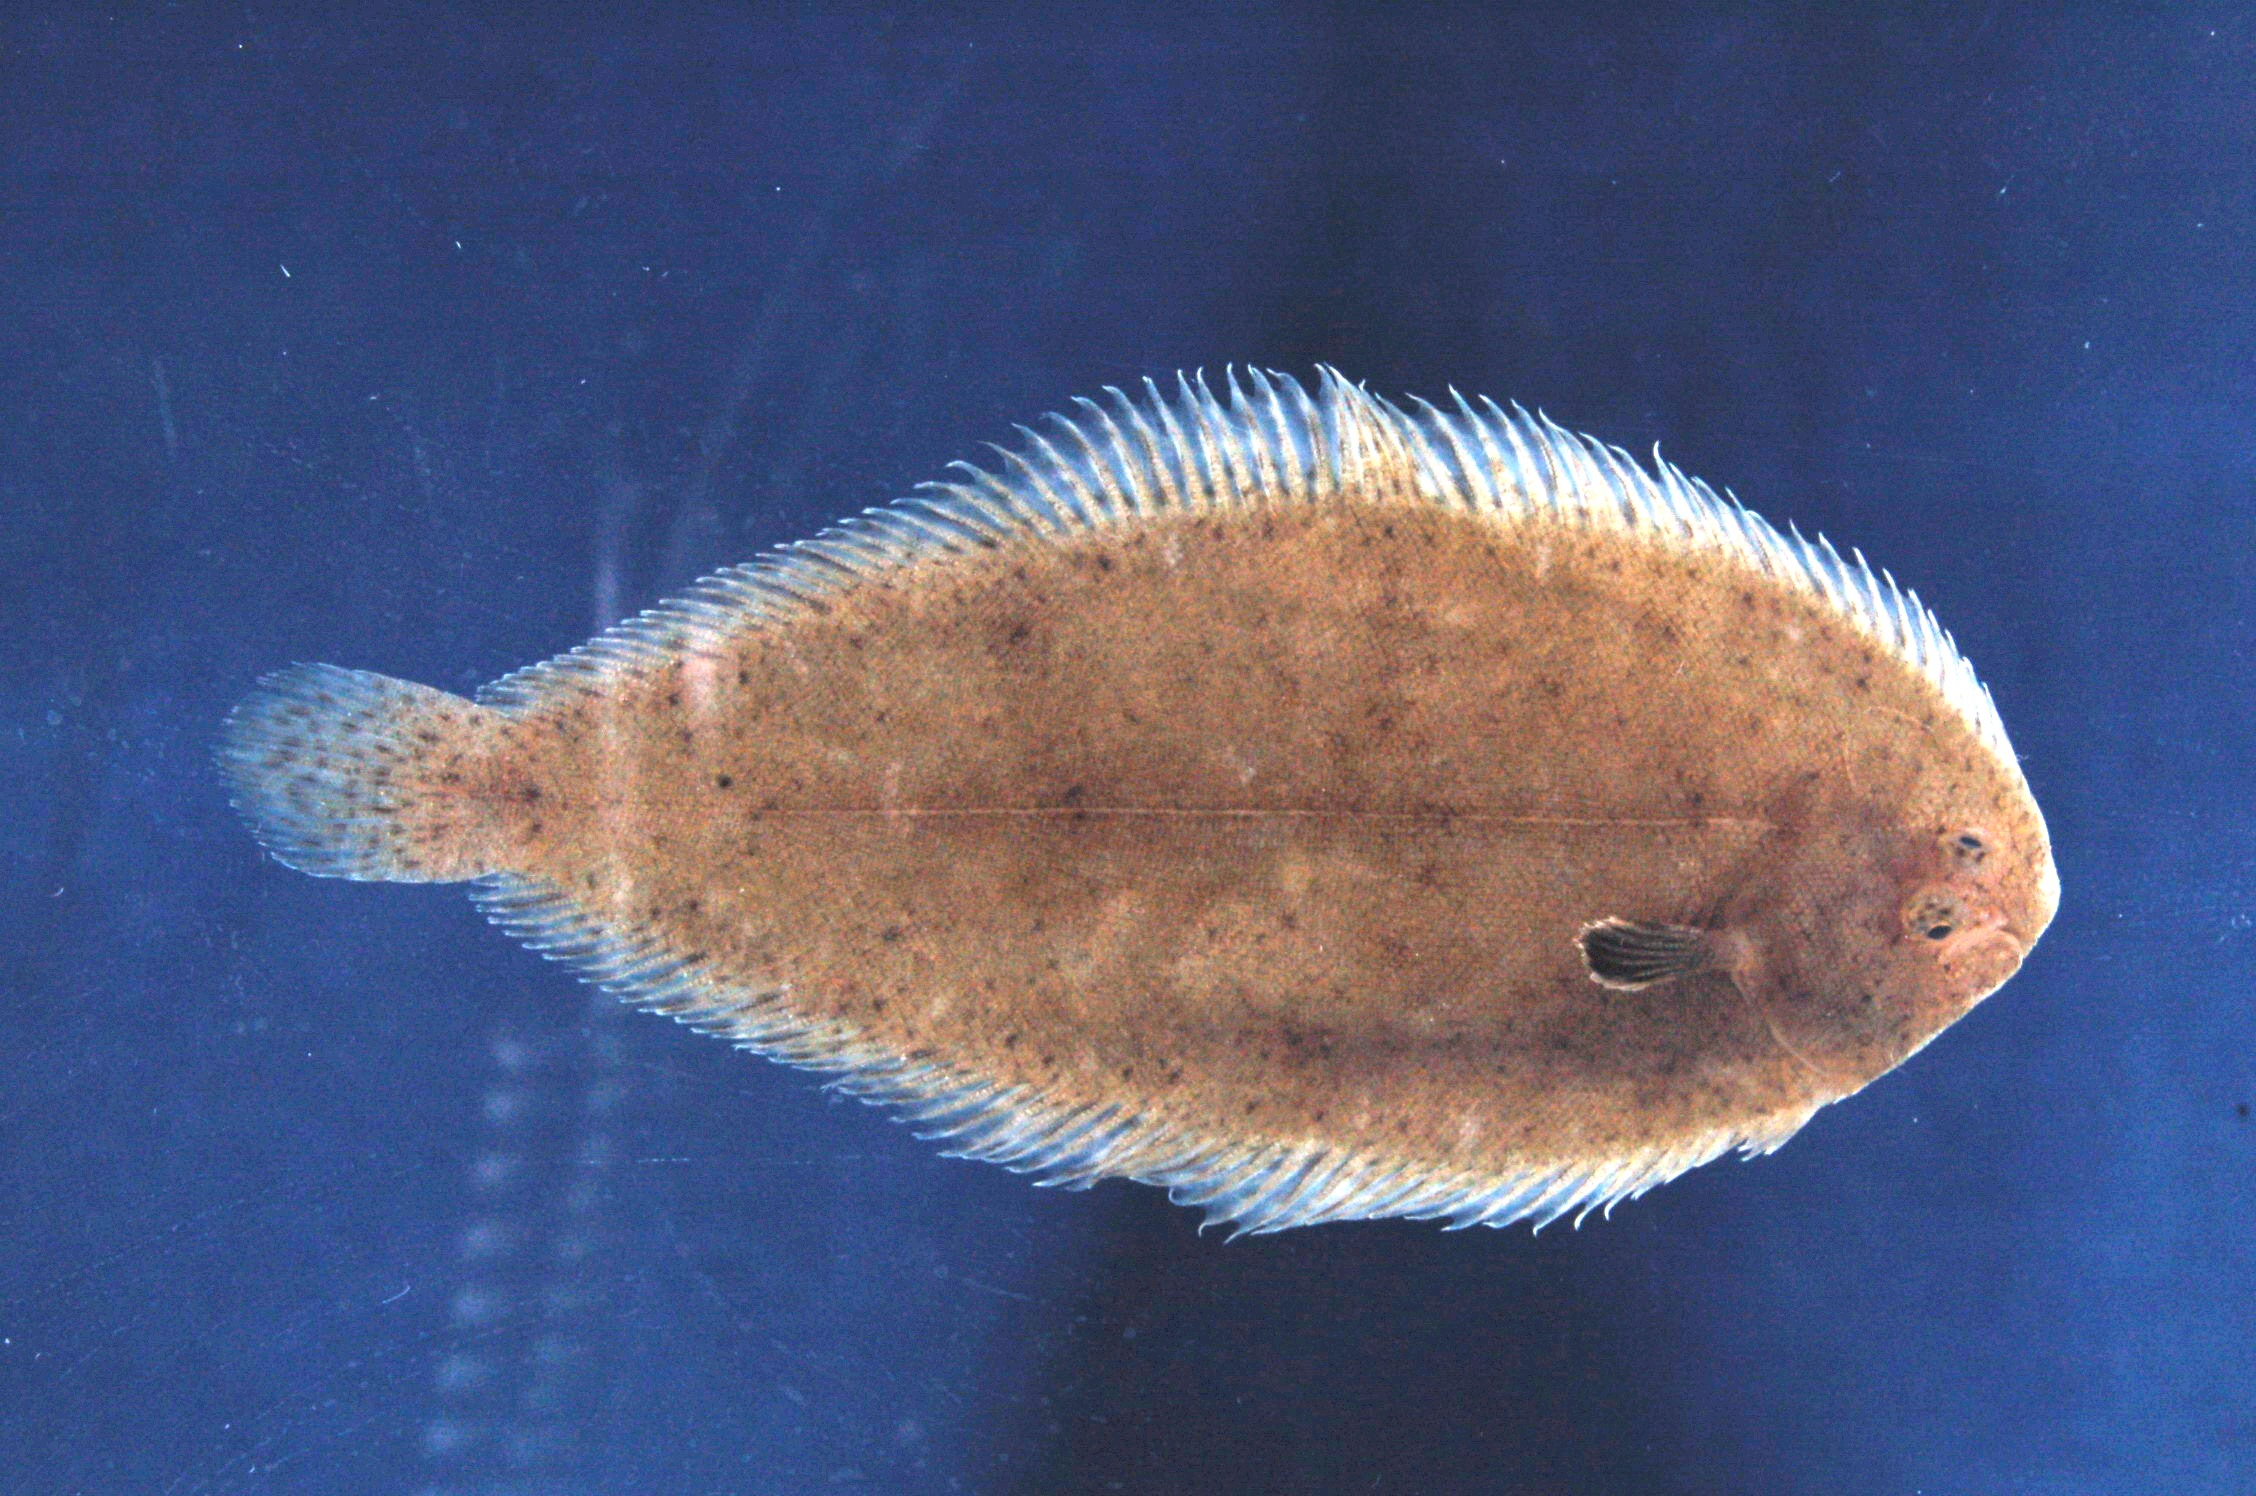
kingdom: Animalia
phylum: Chordata
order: Pleuronectiformes
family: Soleidae
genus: Solea
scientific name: Solea turbynei
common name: Blackhand sole
